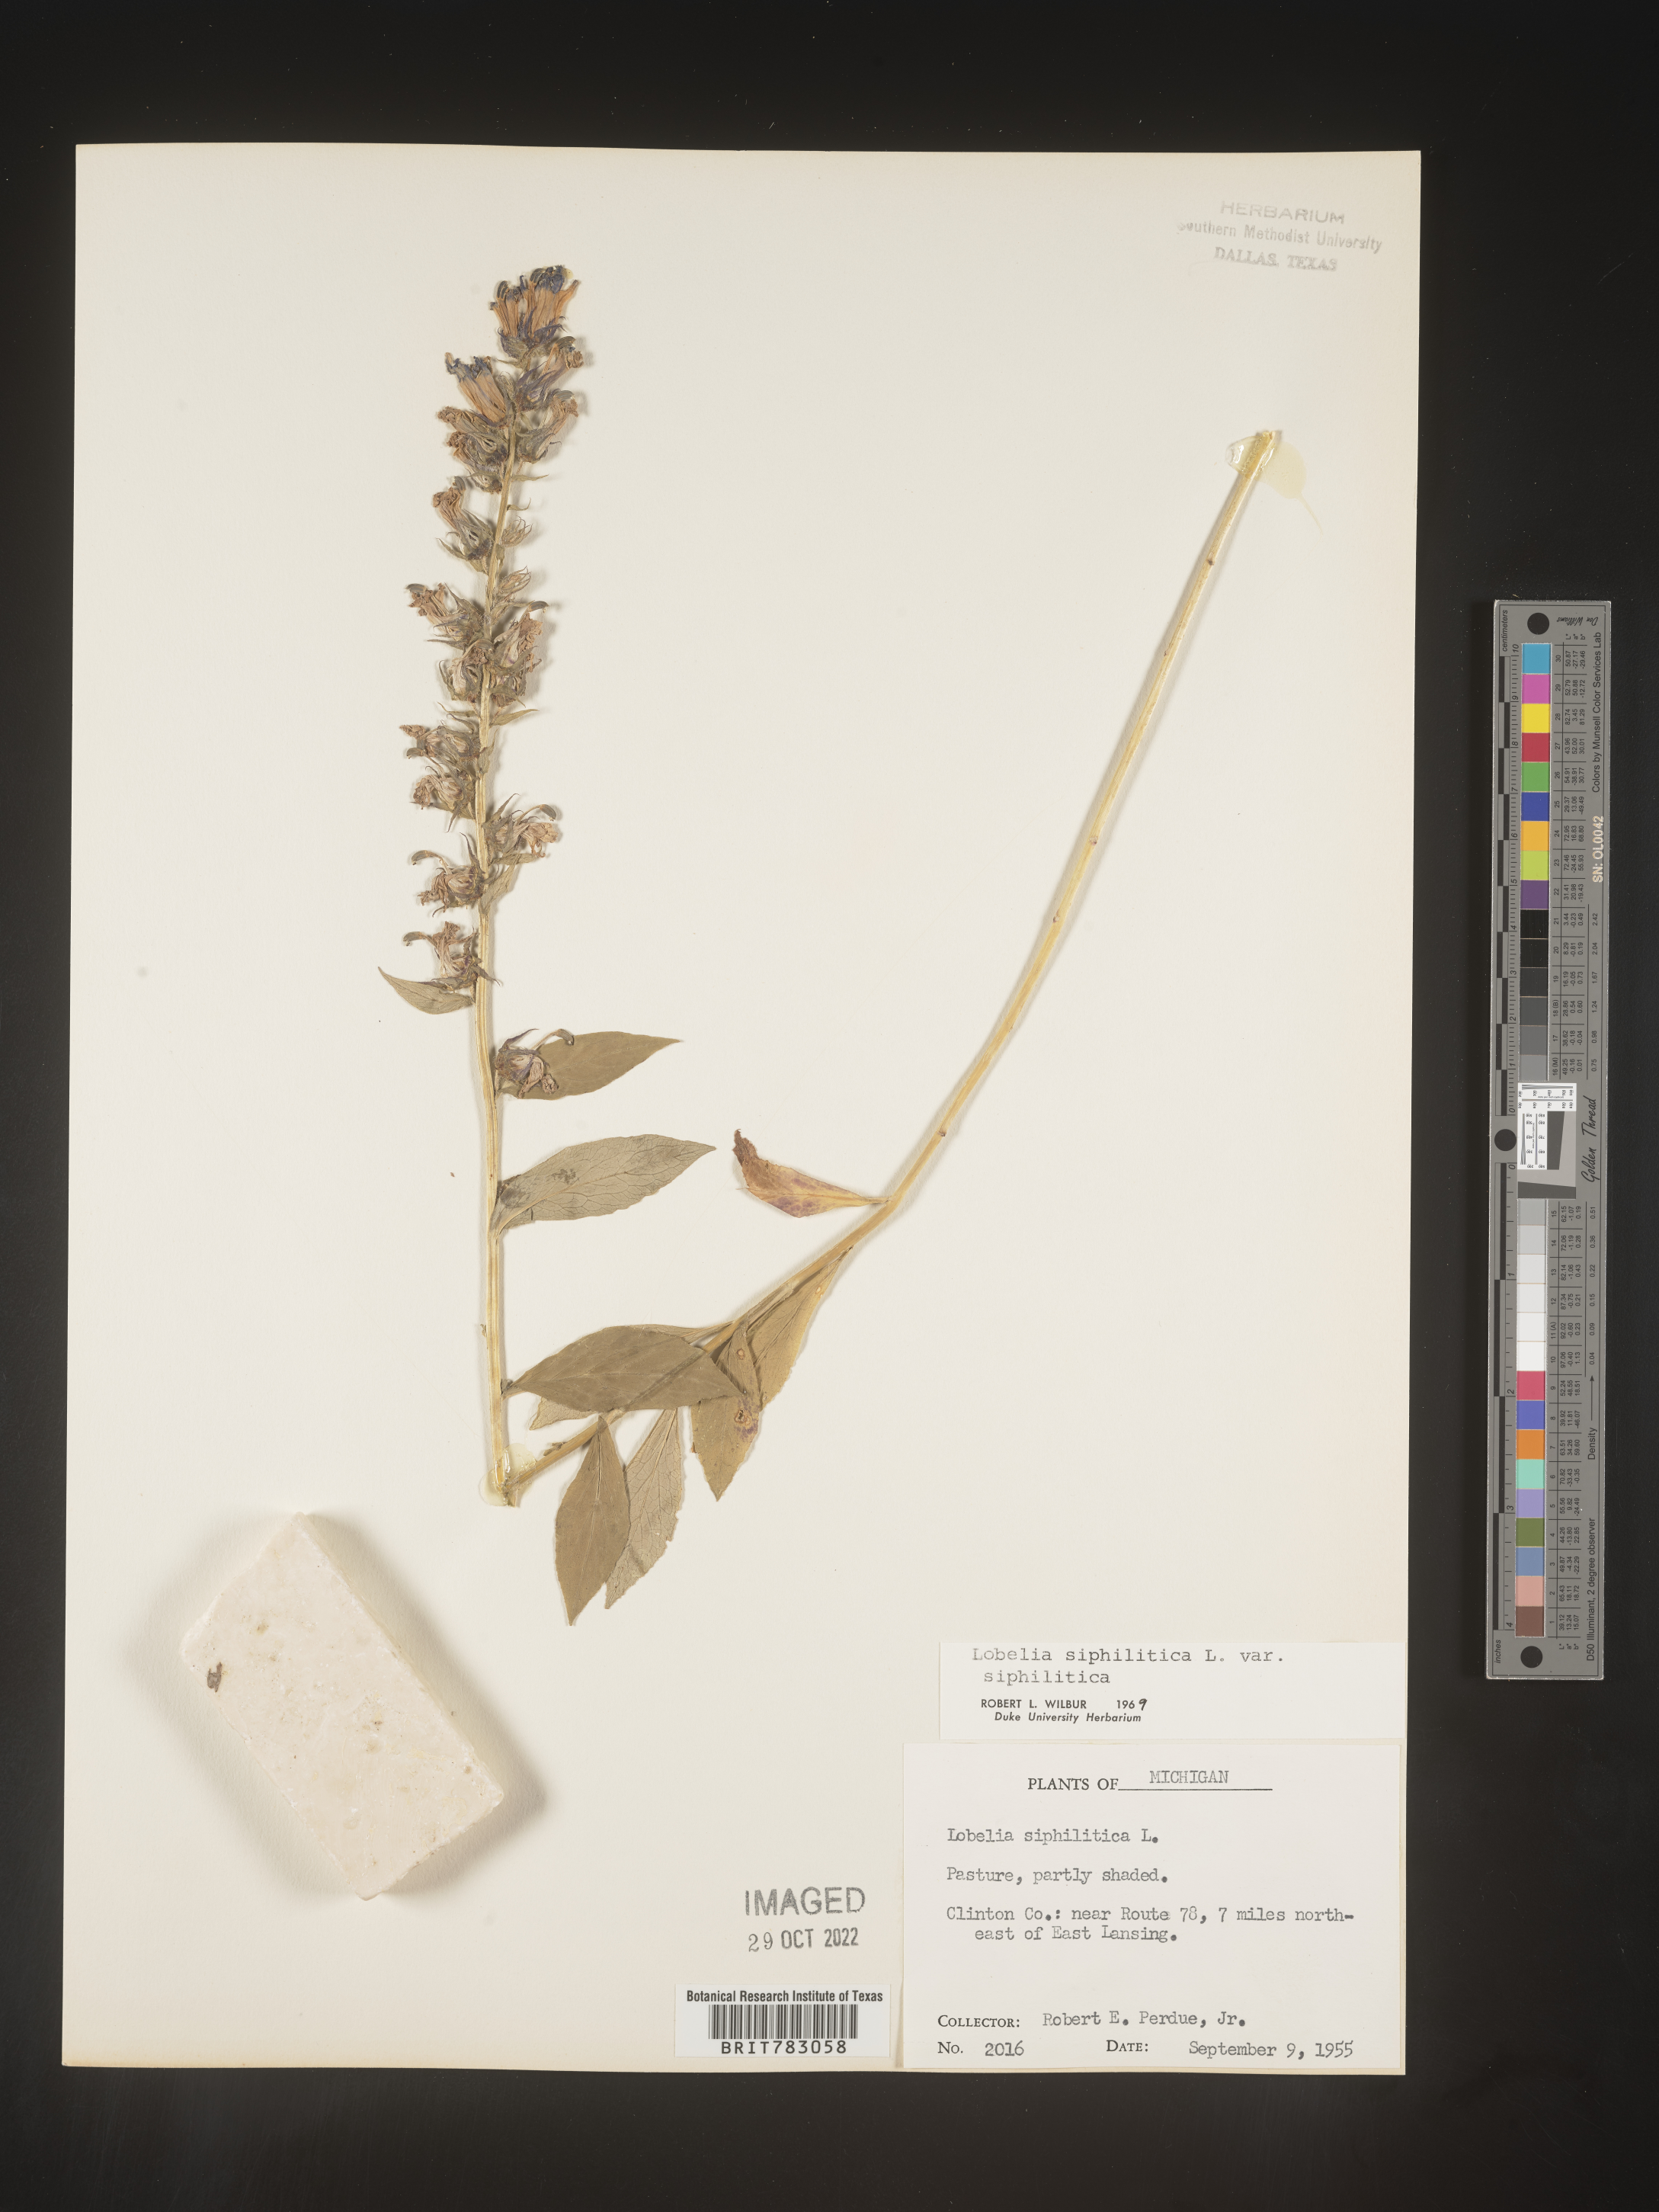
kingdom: Plantae
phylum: Tracheophyta
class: Magnoliopsida
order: Asterales
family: Campanulaceae
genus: Lobelia
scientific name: Lobelia siphilitica
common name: Great lobelia
